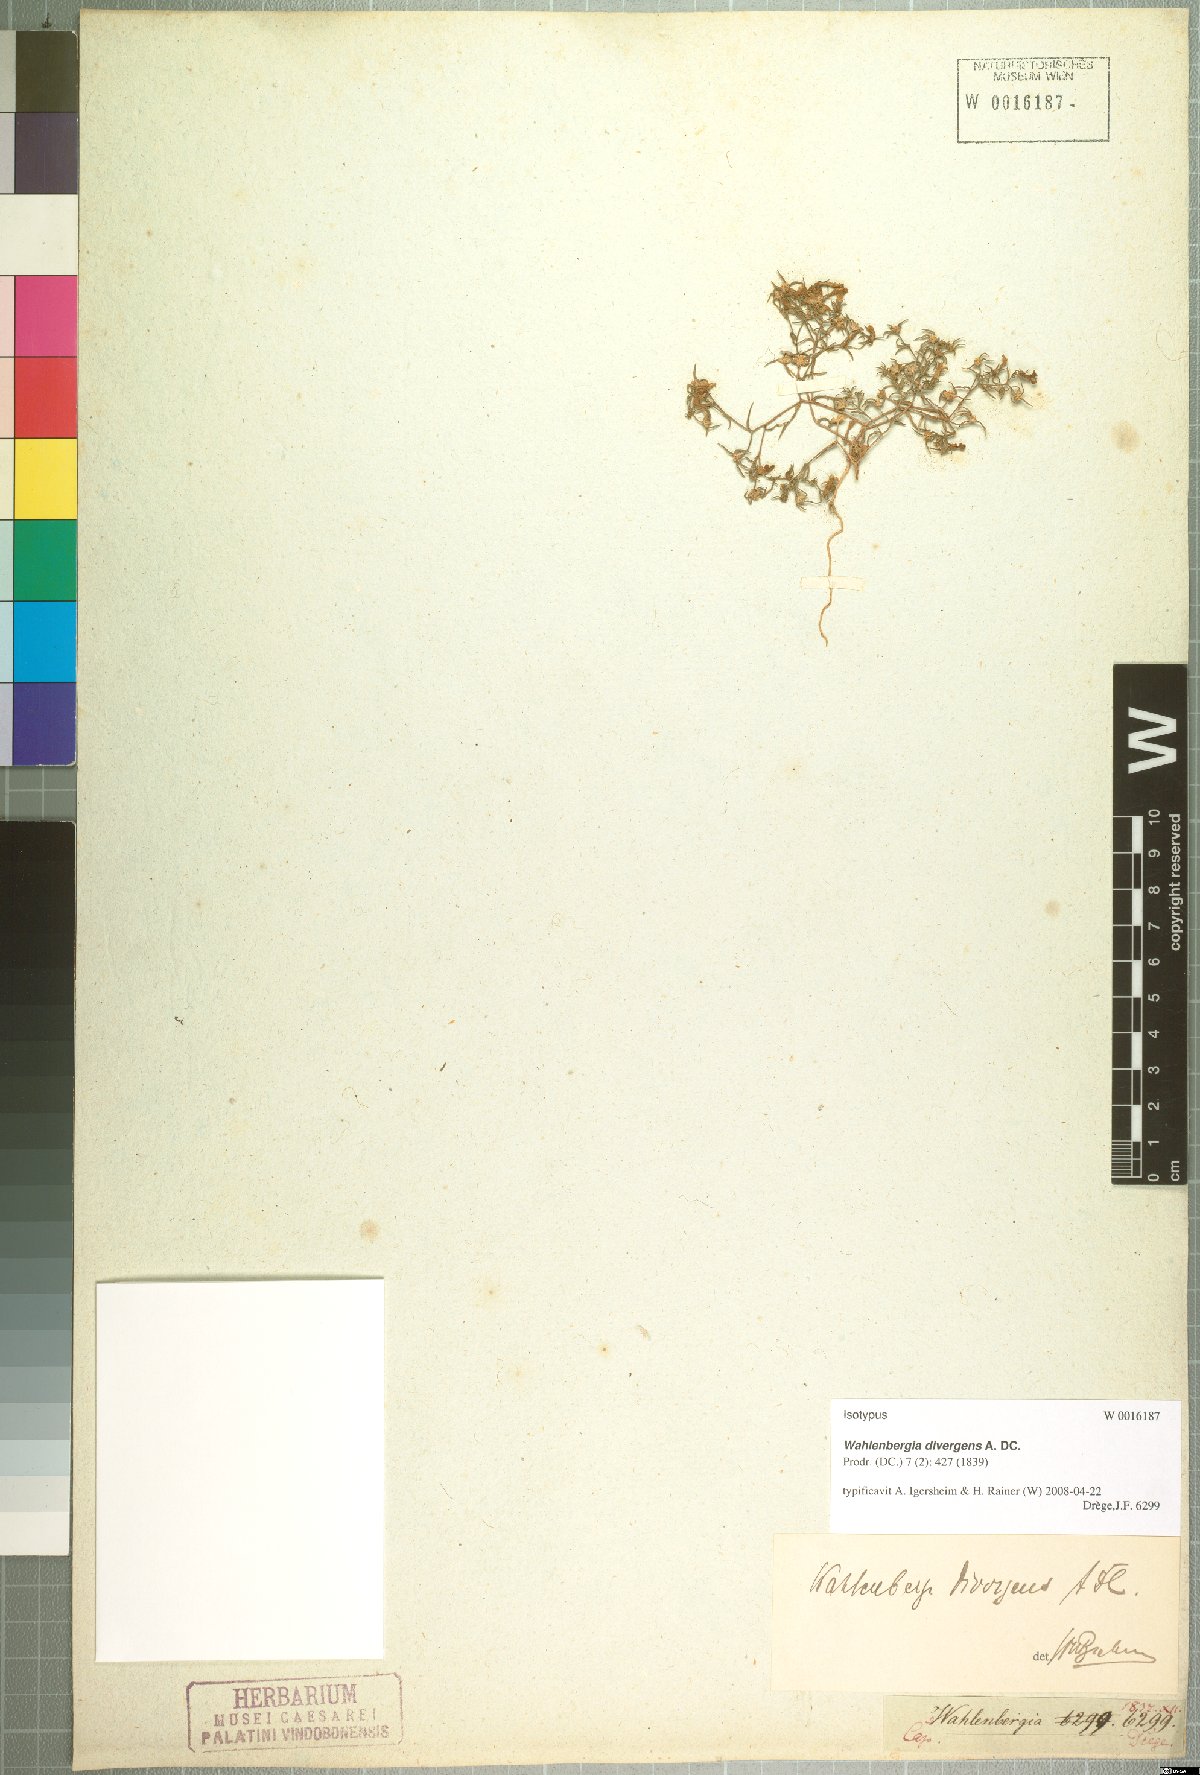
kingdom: Plantae
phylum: Tracheophyta
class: Magnoliopsida
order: Asterales
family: Campanulaceae
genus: Wahlenbergia
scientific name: Wahlenbergia divergens
